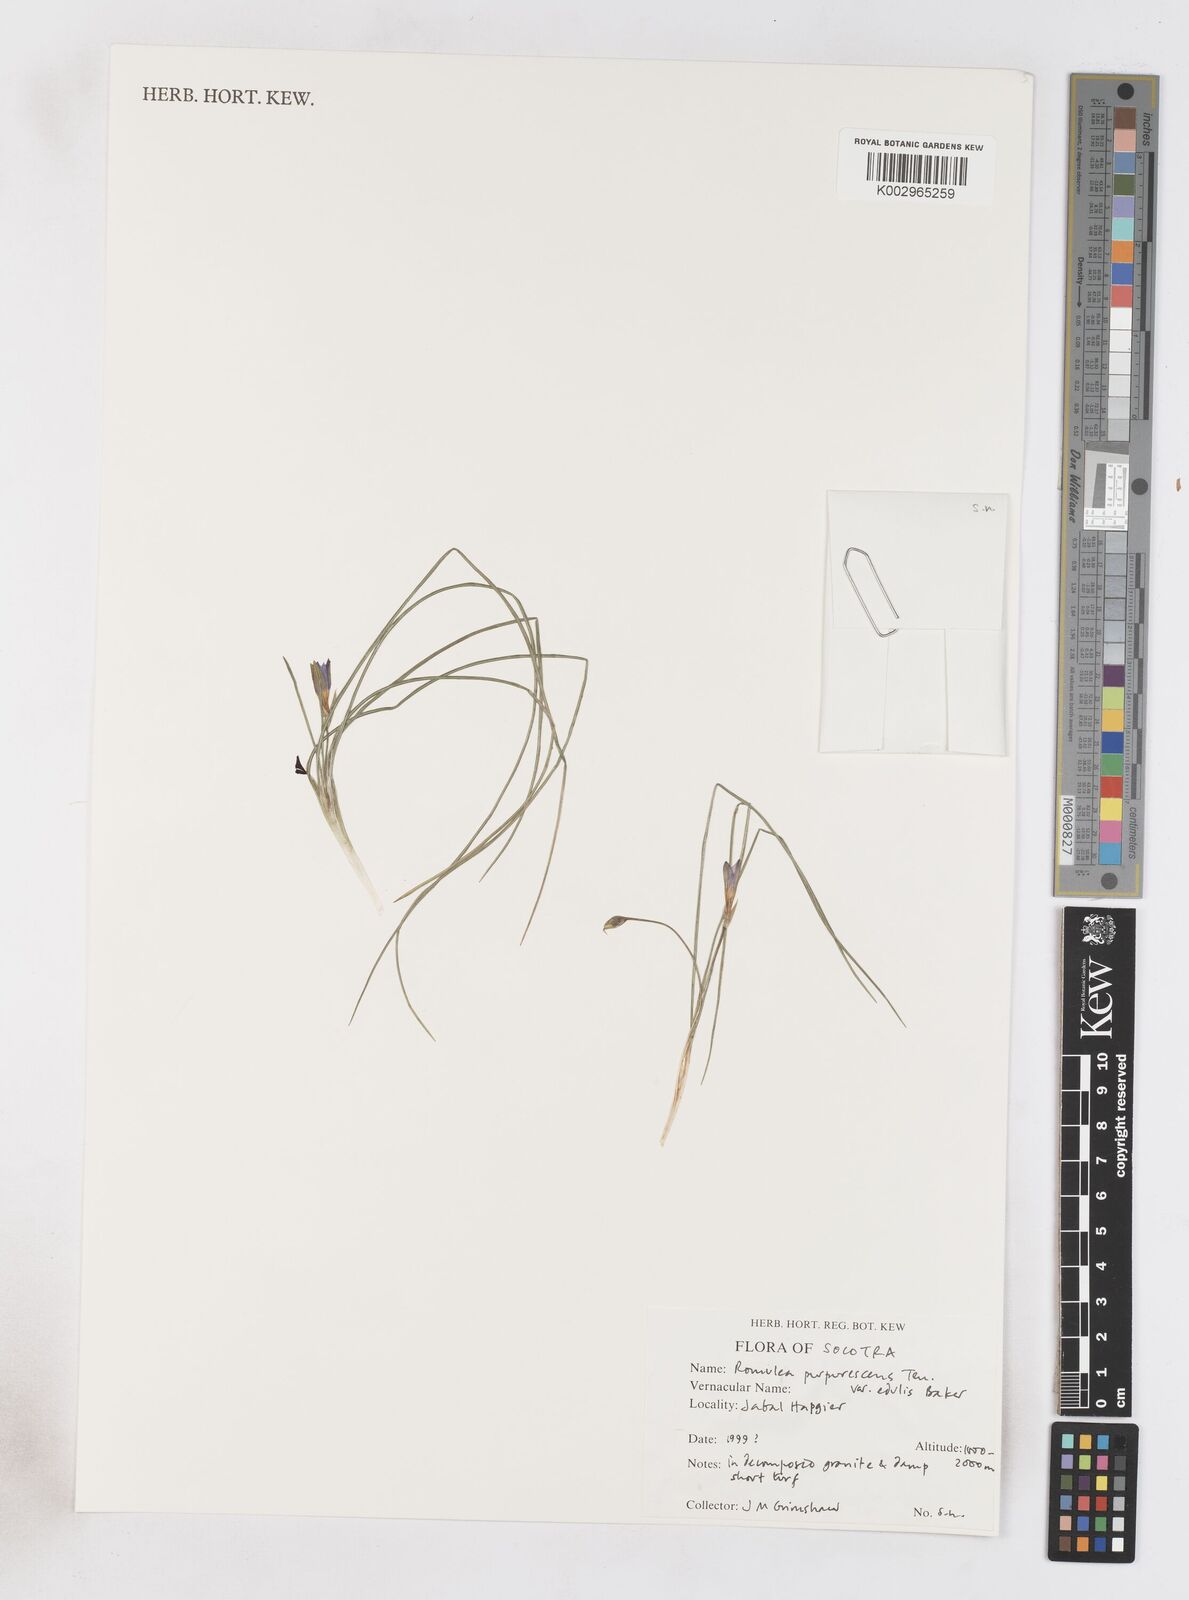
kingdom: Plantae
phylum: Tracheophyta
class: Liliopsida
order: Asparagales
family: Iridaceae
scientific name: Iridaceae
